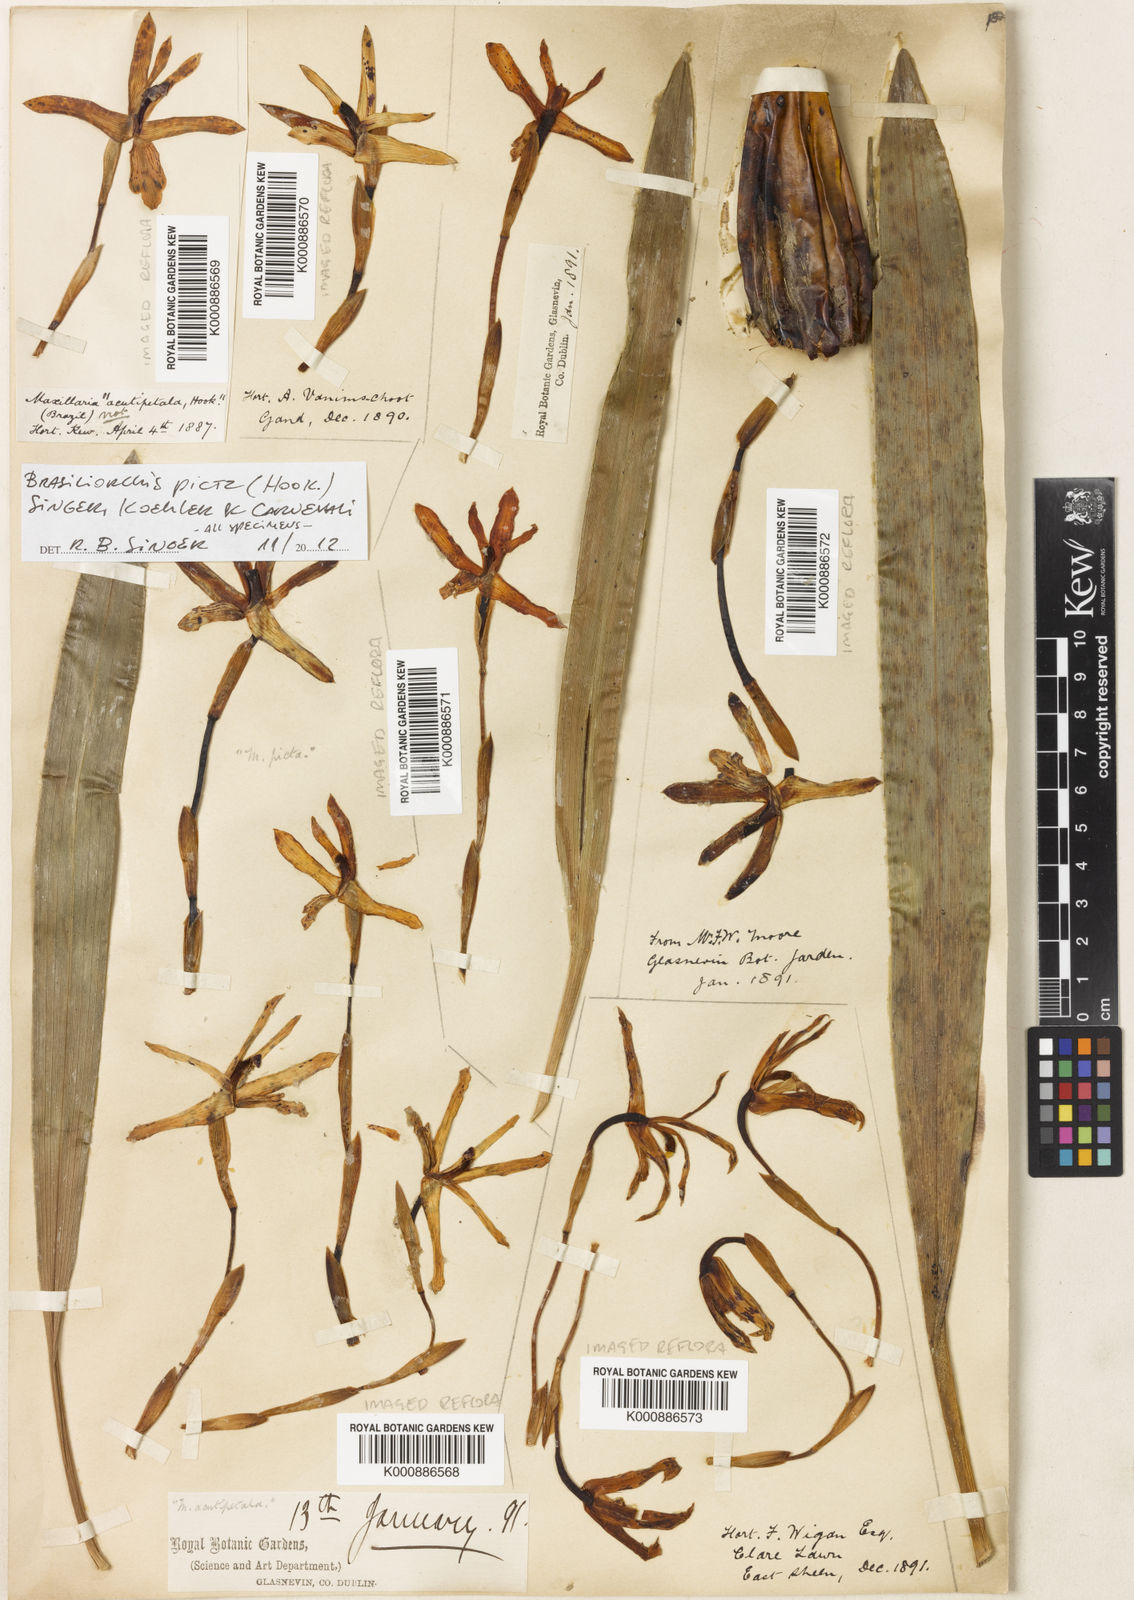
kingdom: Plantae
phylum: Tracheophyta
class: Liliopsida
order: Asparagales
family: Orchidaceae
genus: Maxillaria
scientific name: Maxillaria picta
